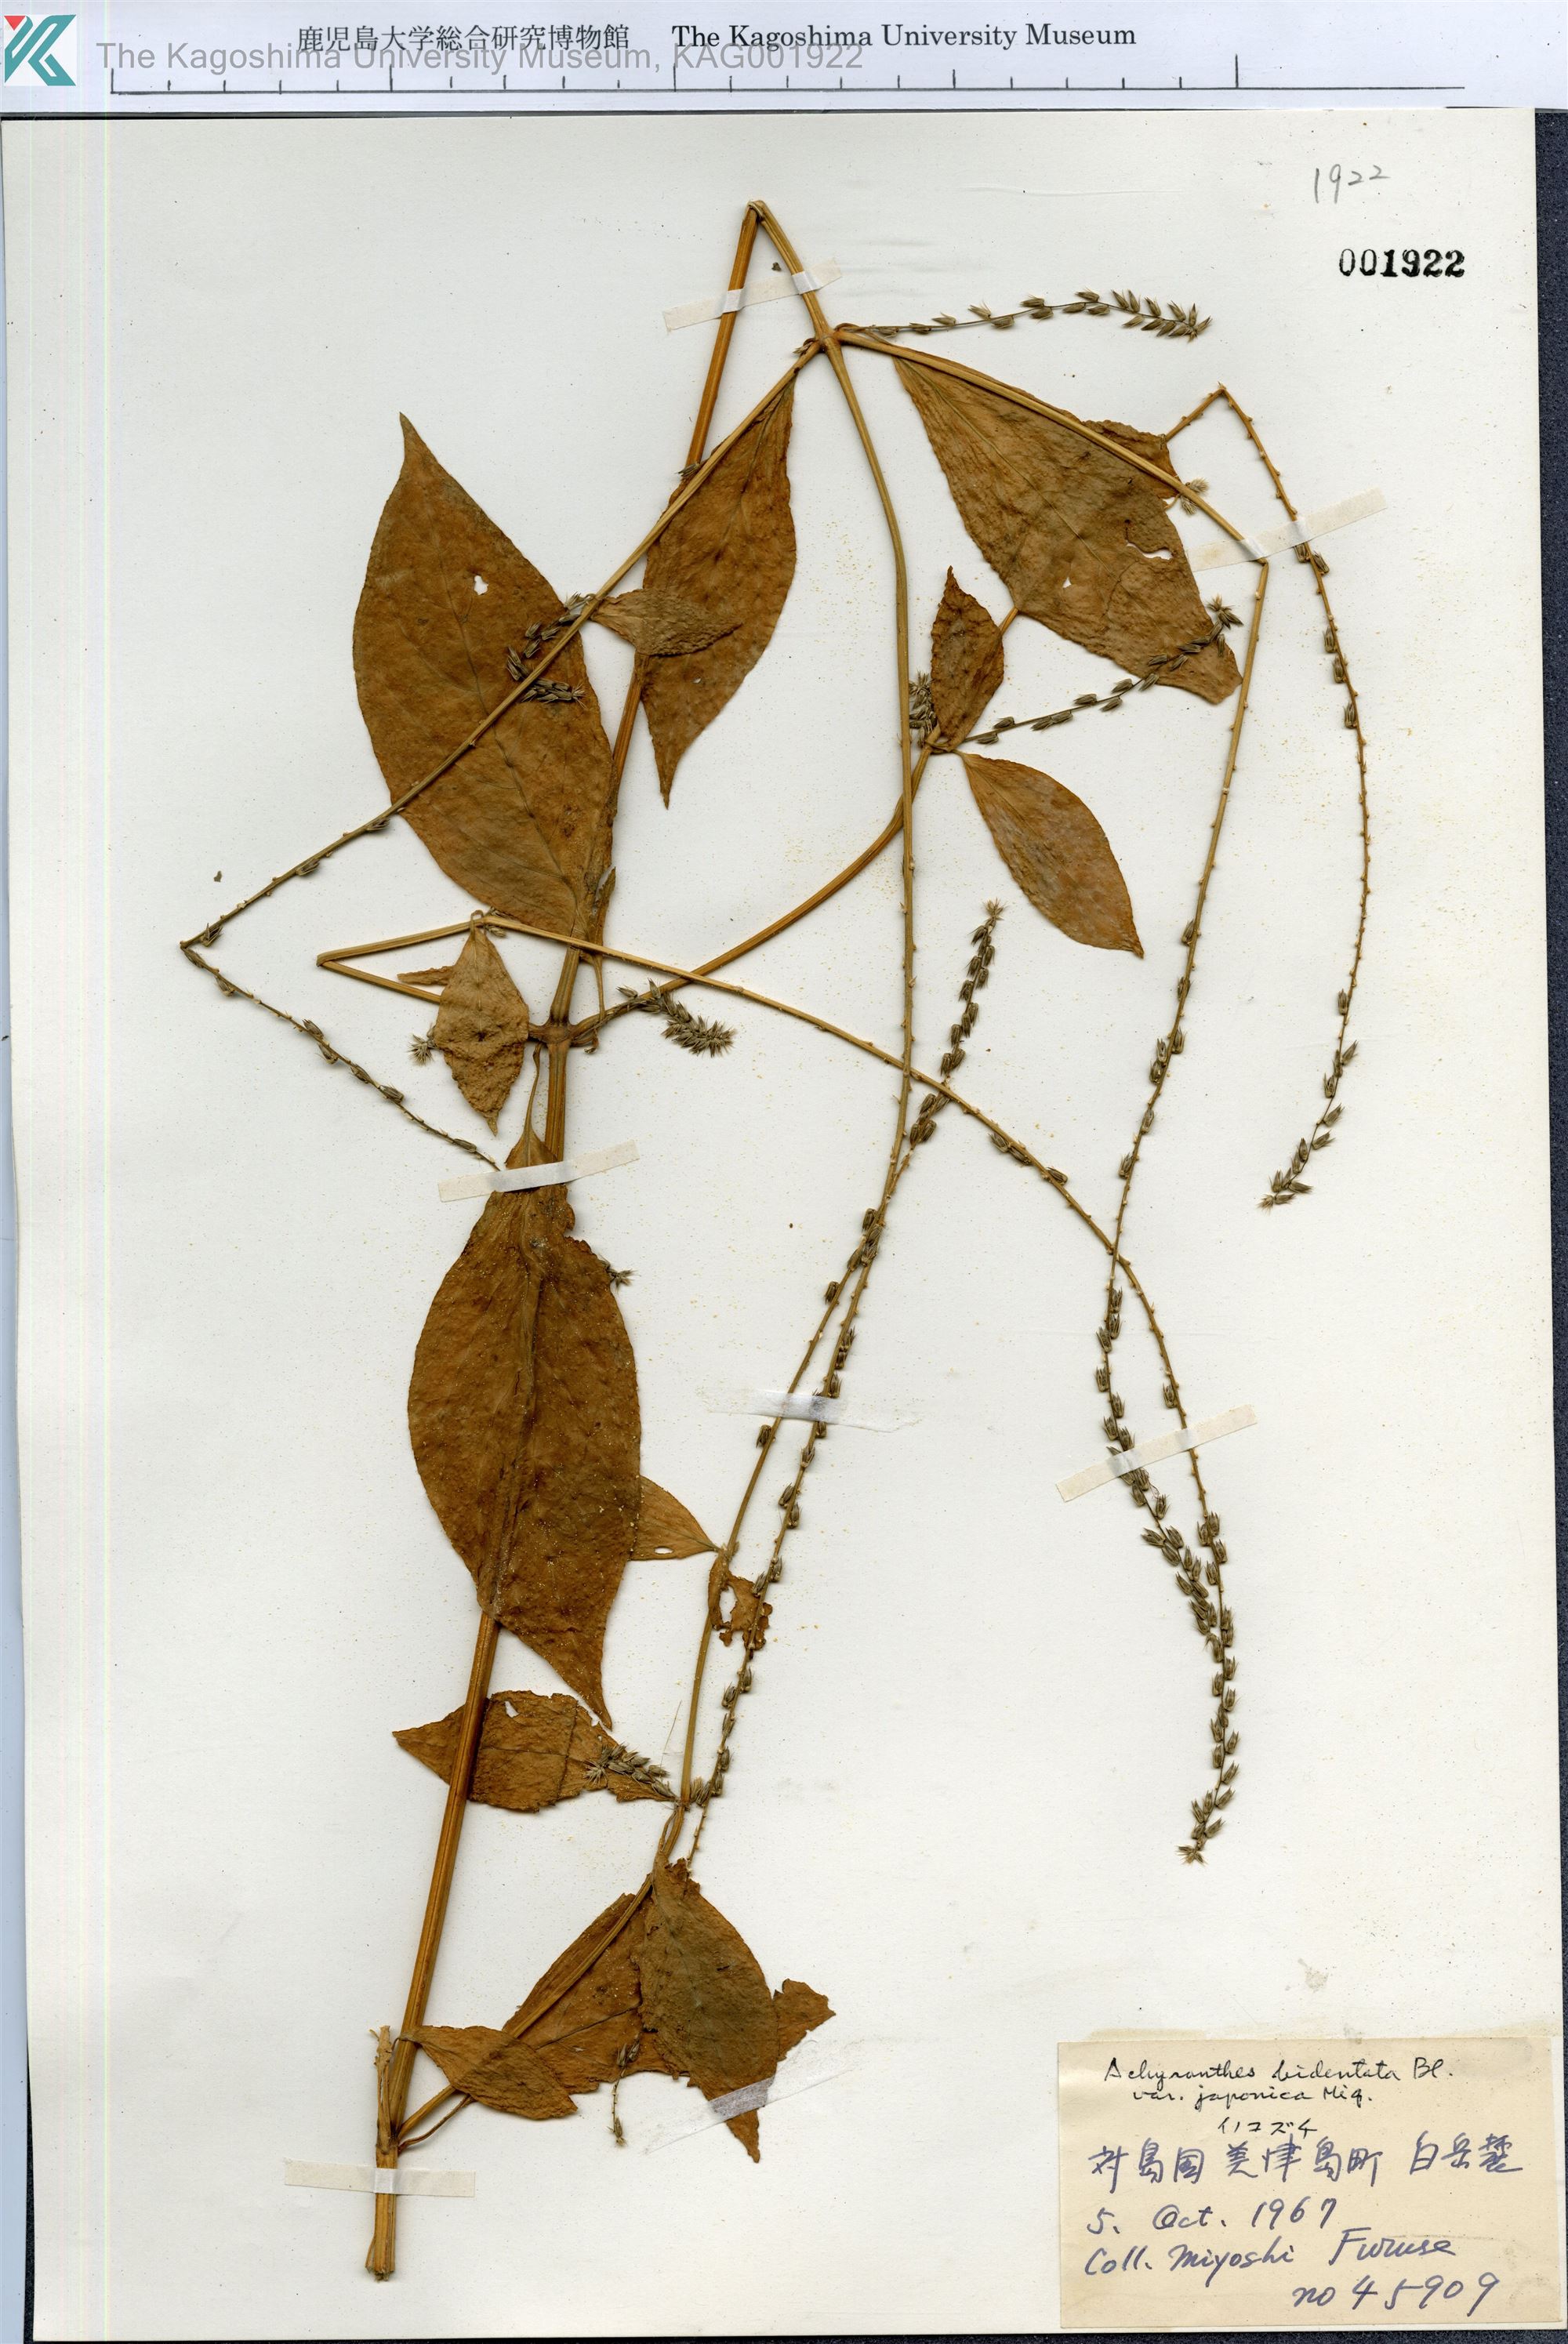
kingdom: Plantae
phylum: Tracheophyta
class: Magnoliopsida
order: Caryophyllales
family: Amaranthaceae
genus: Achyranthes
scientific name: Achyranthes bidentata
